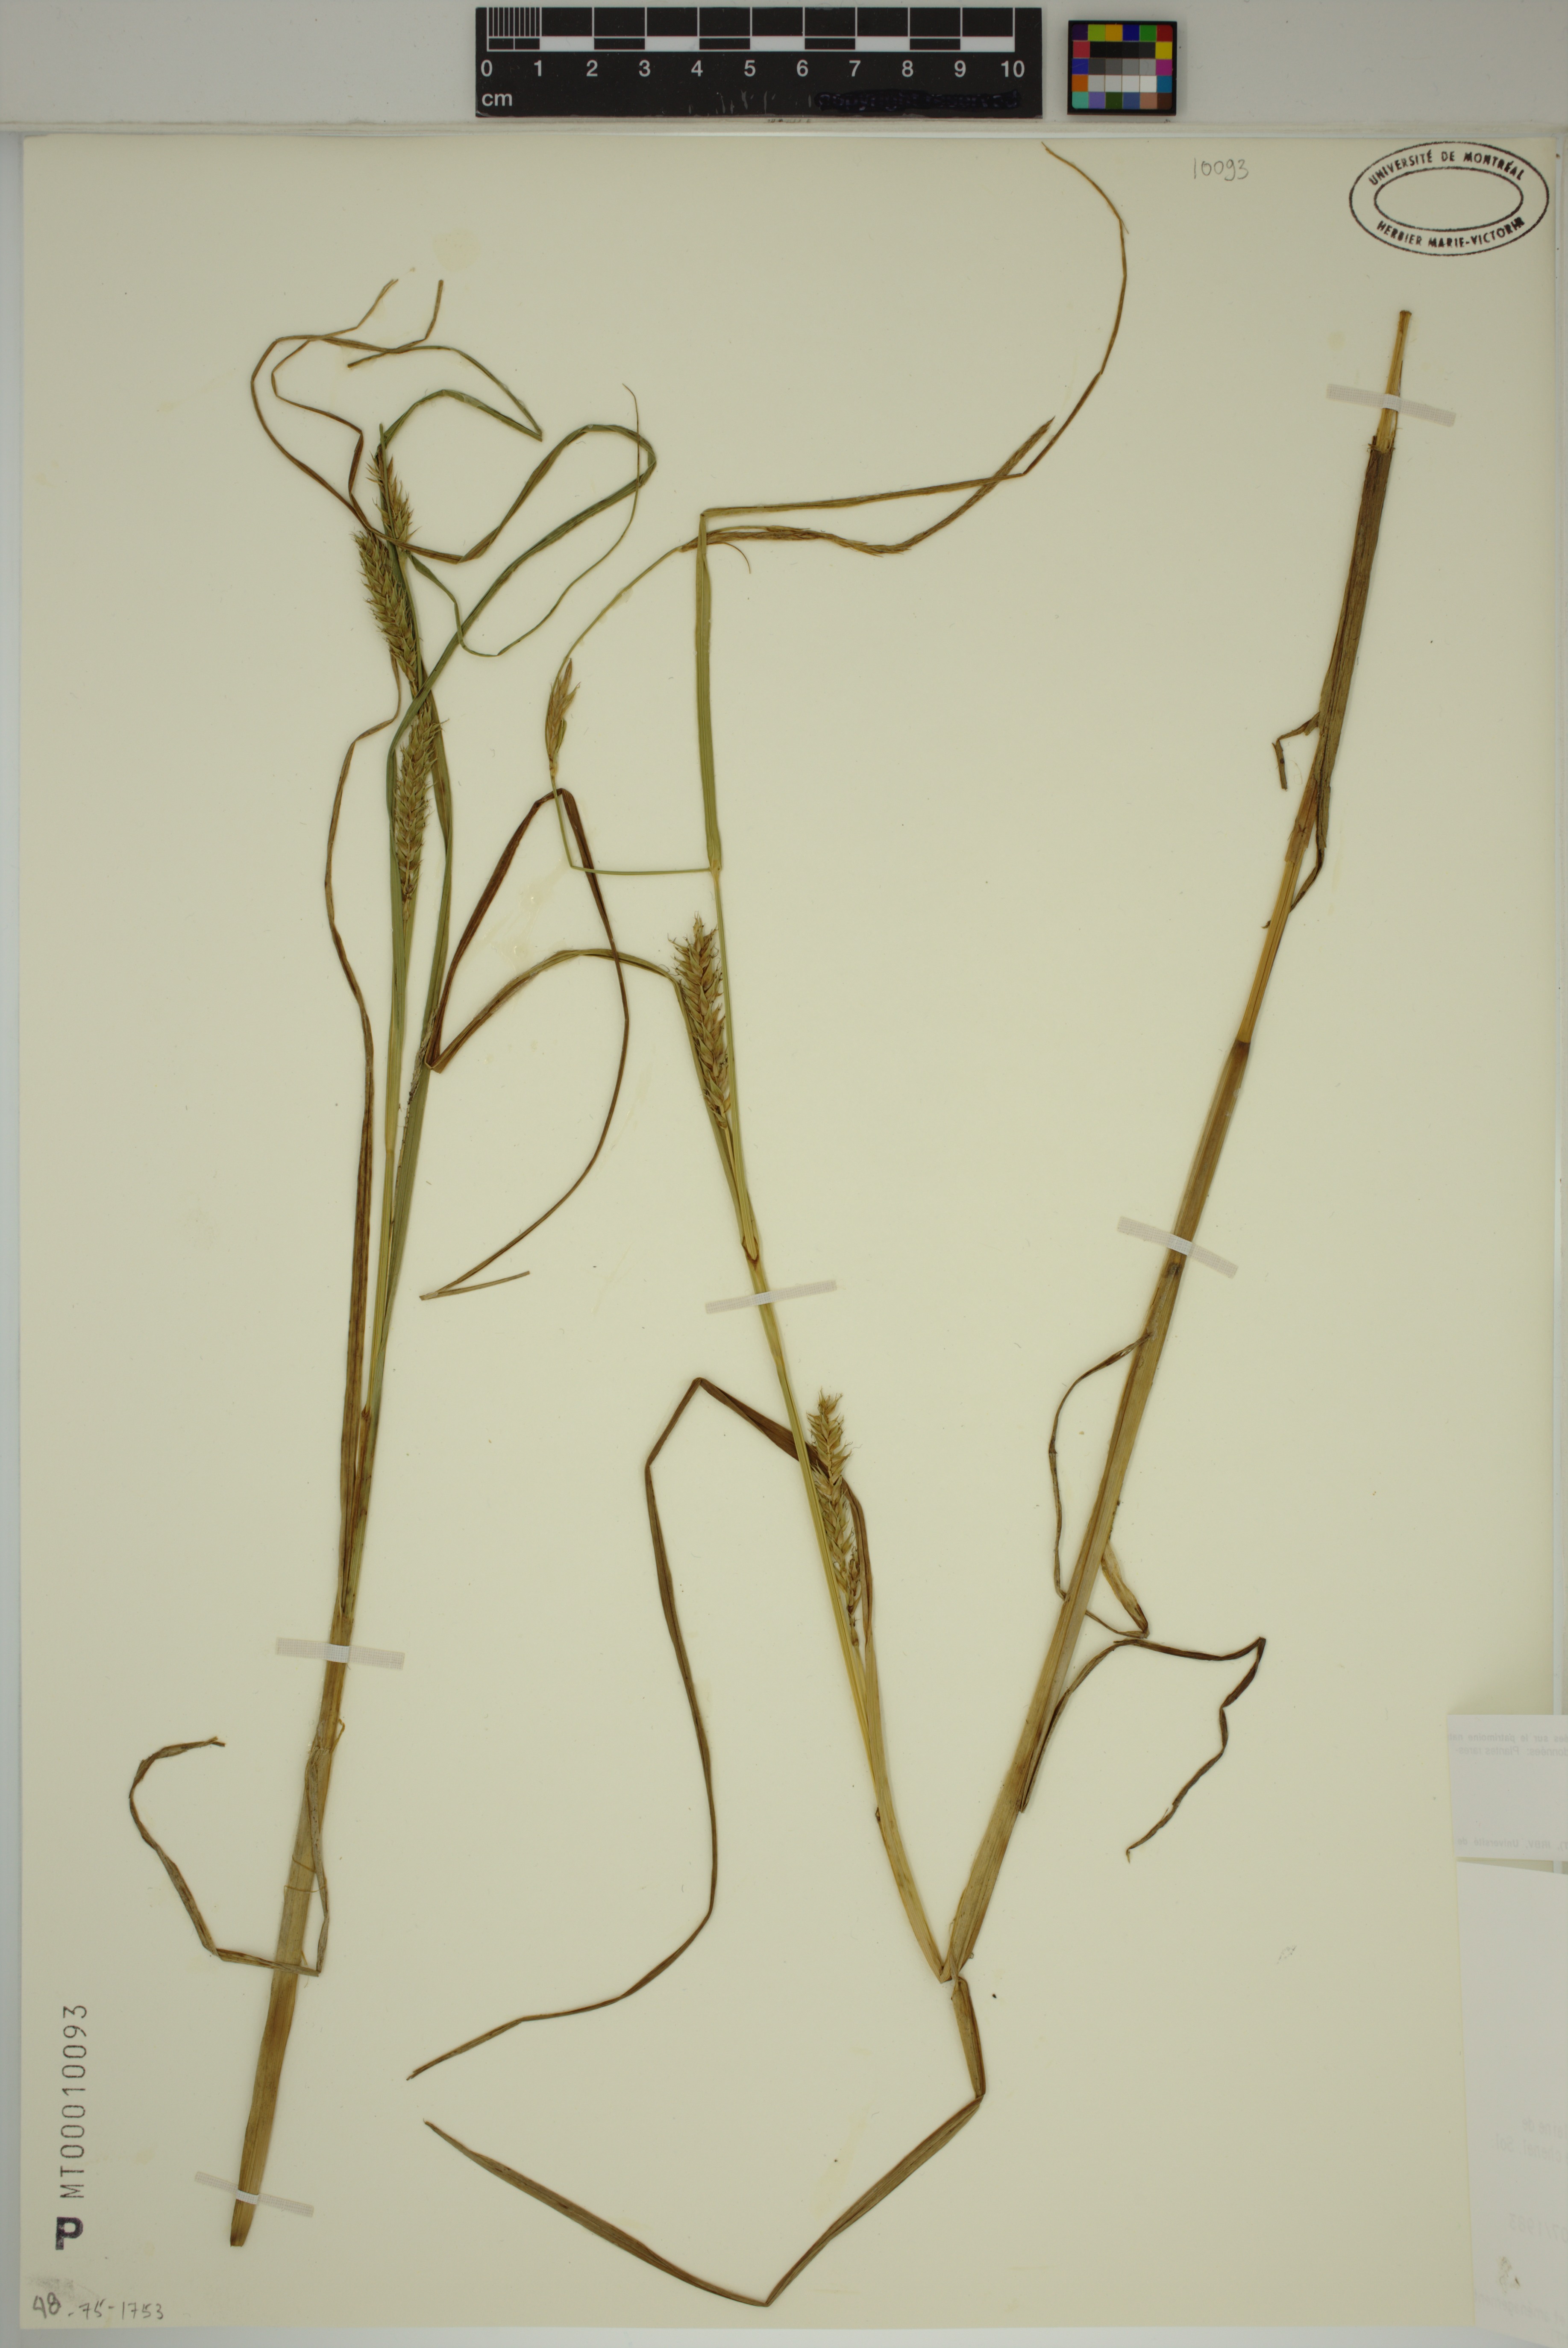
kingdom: Plantae
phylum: Tracheophyta
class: Liliopsida
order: Poales
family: Cyperaceae
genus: Carex
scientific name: Carex atherodes
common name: Wheat sedge
